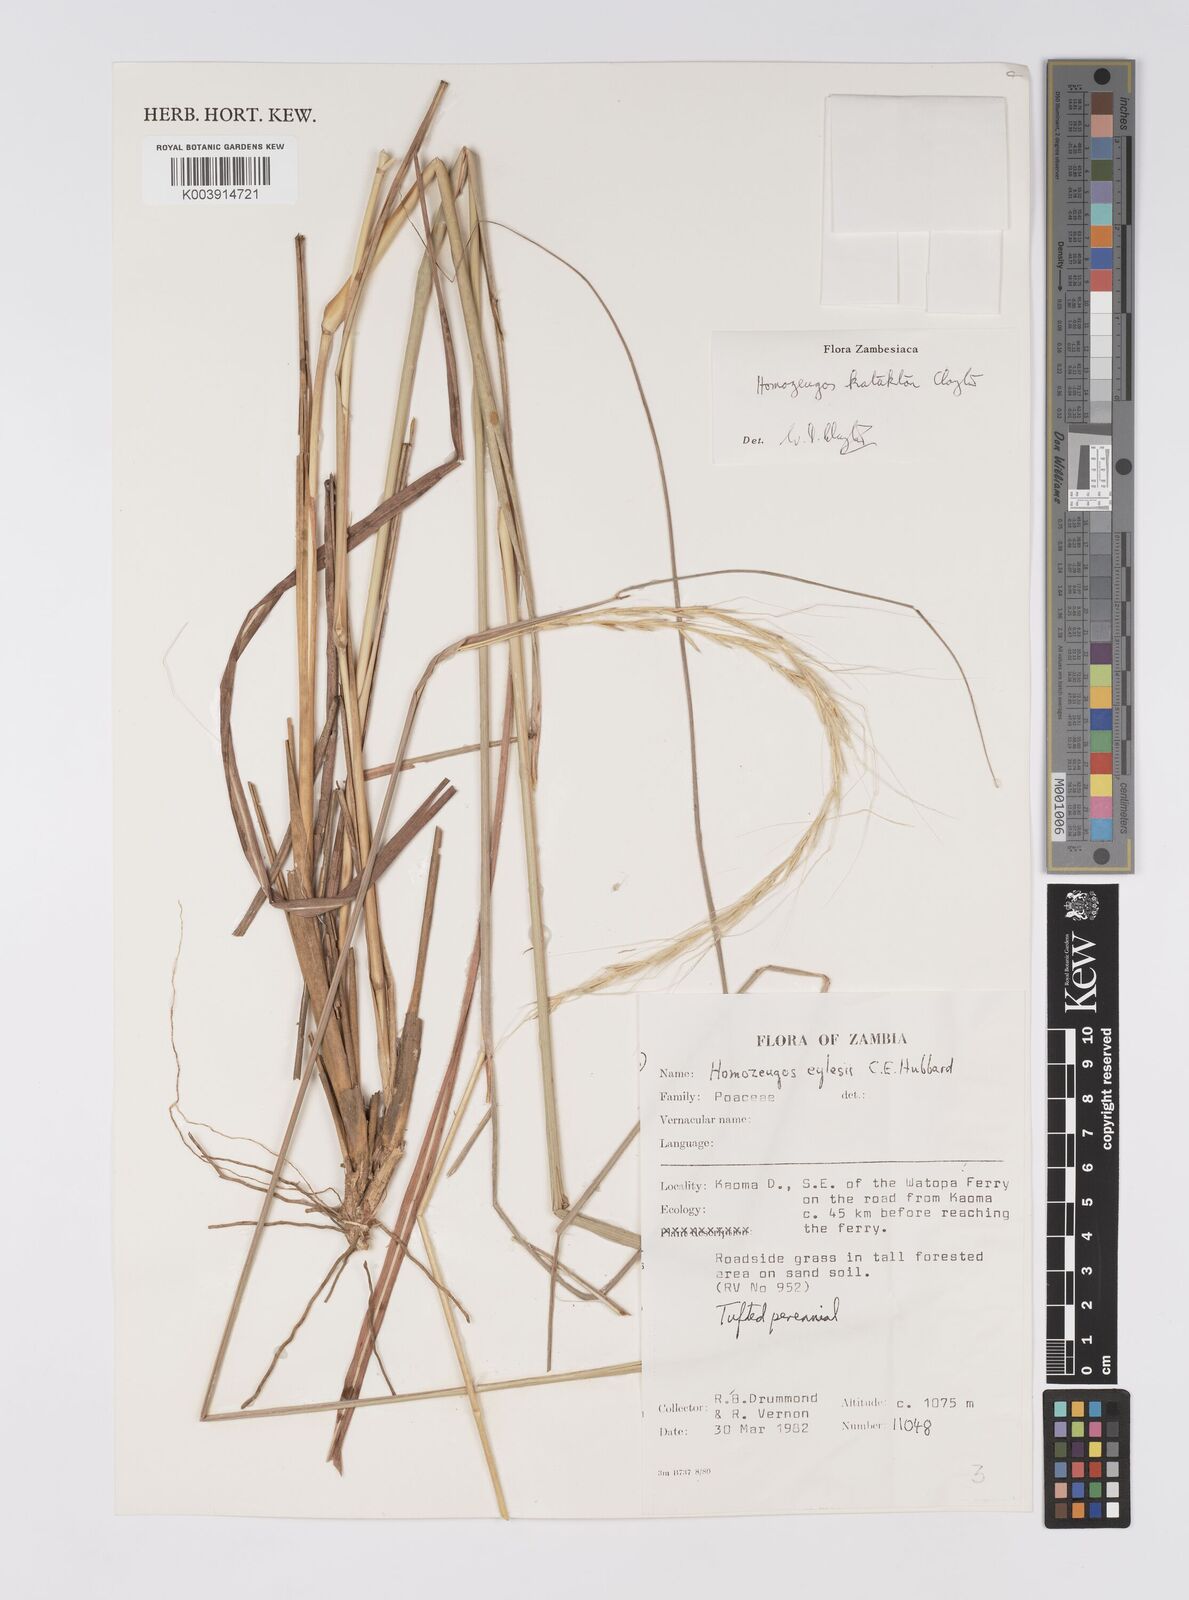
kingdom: Plantae
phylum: Tracheophyta
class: Liliopsida
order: Poales
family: Poaceae
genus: Homozeugos
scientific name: Homozeugos katakton
